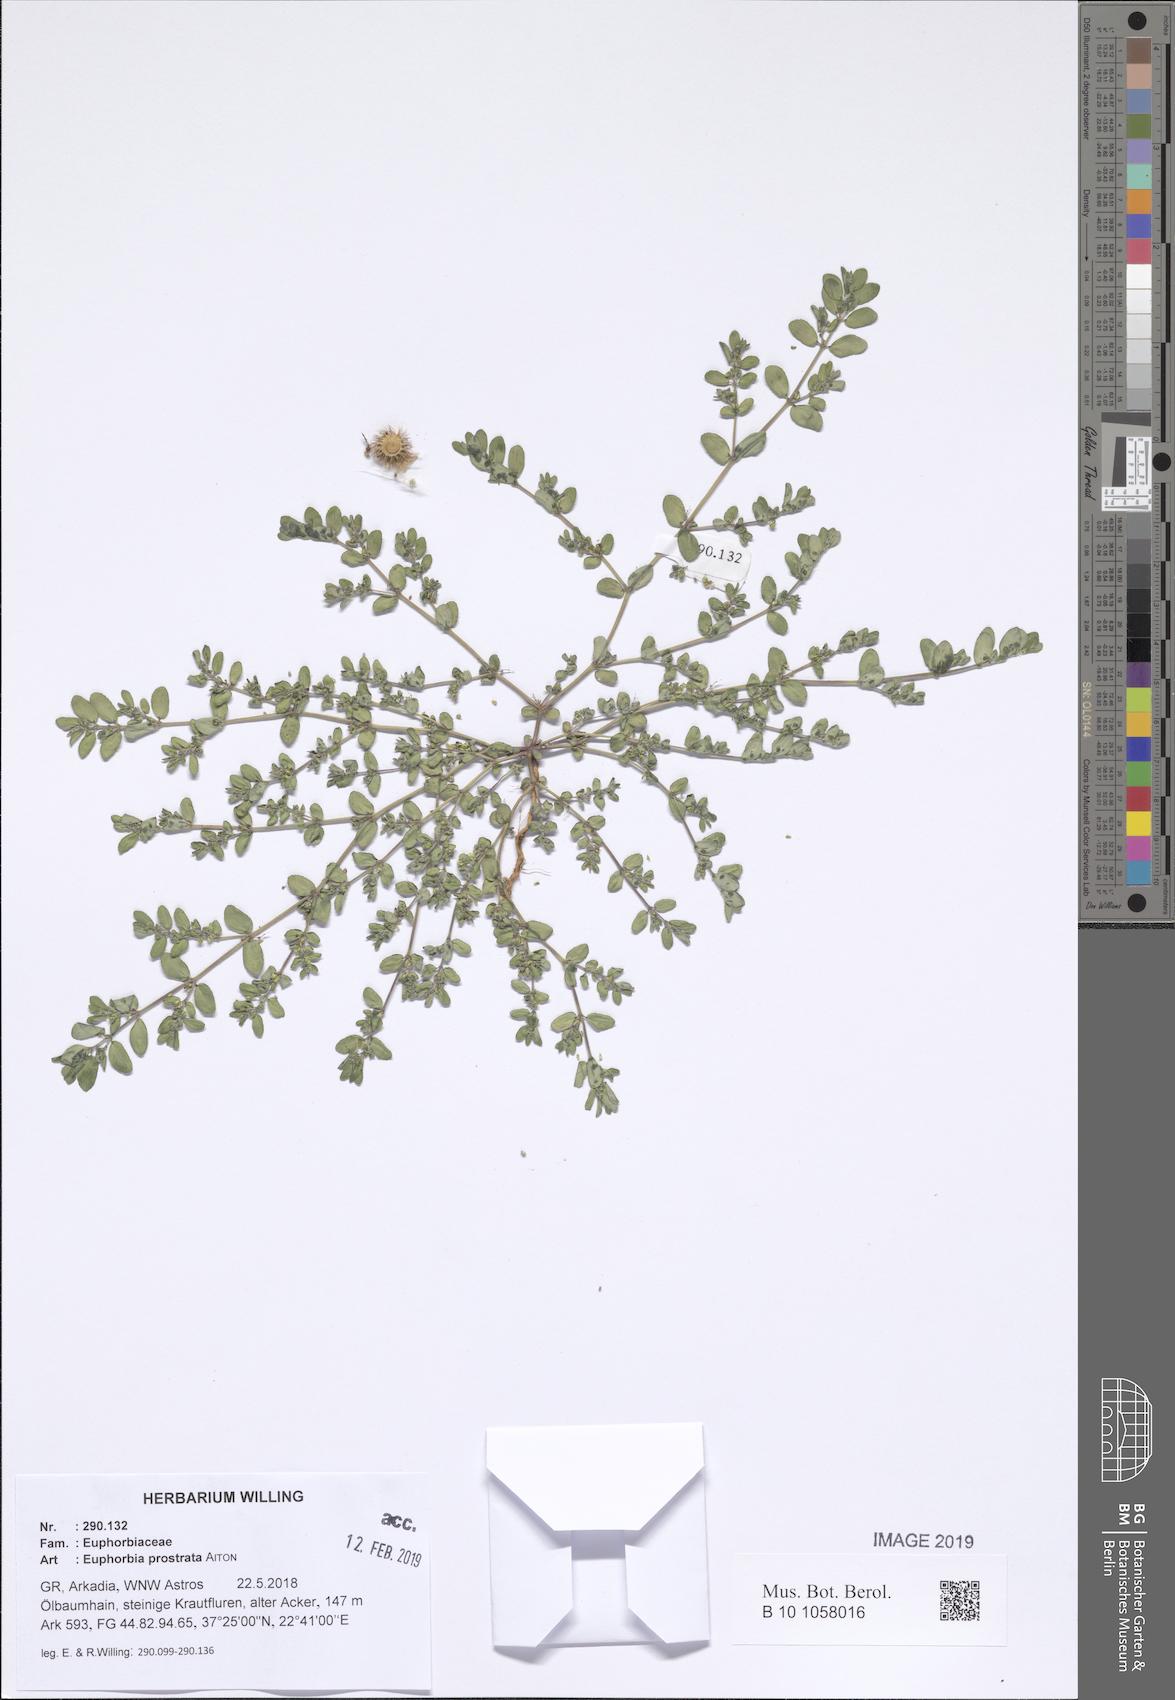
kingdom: Plantae
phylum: Tracheophyta
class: Magnoliopsida
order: Malpighiales
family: Euphorbiaceae
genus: Euphorbia
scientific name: Euphorbia prostrata
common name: Prostrate sandmat
